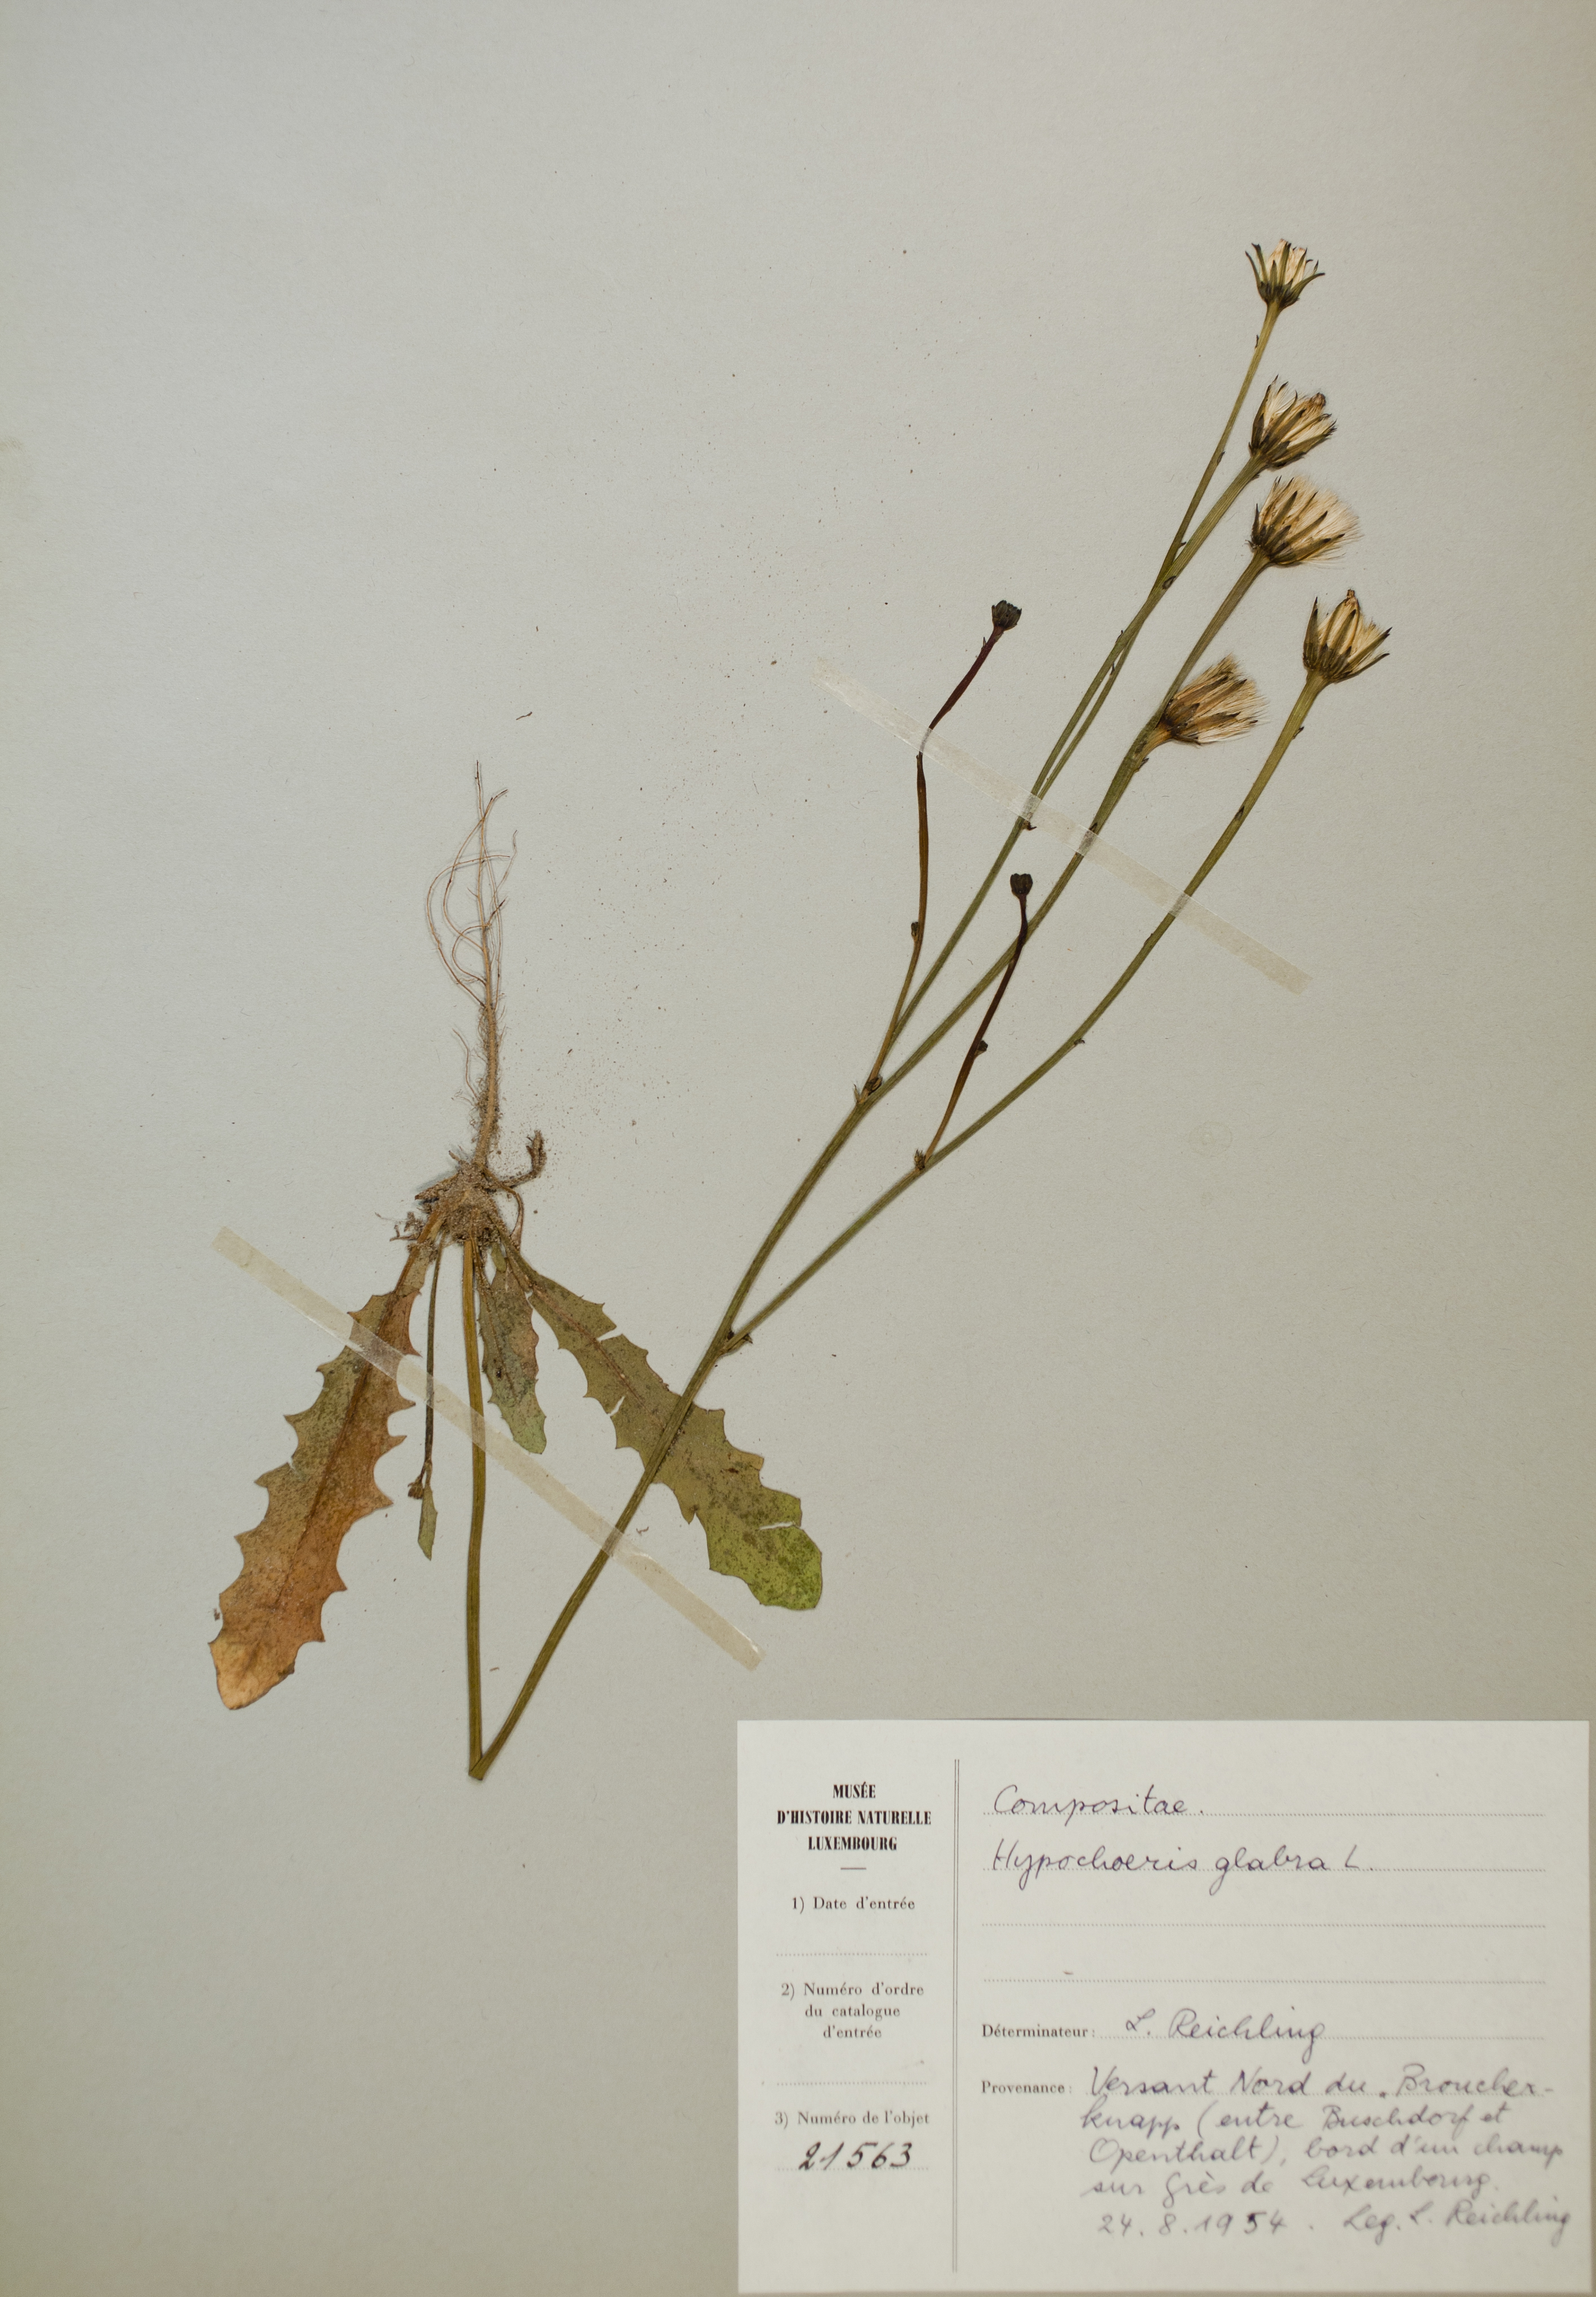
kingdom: Plantae
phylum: Tracheophyta
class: Magnoliopsida
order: Asterales
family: Asteraceae
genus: Hypochoeris
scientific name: Hypochoeris glabra
